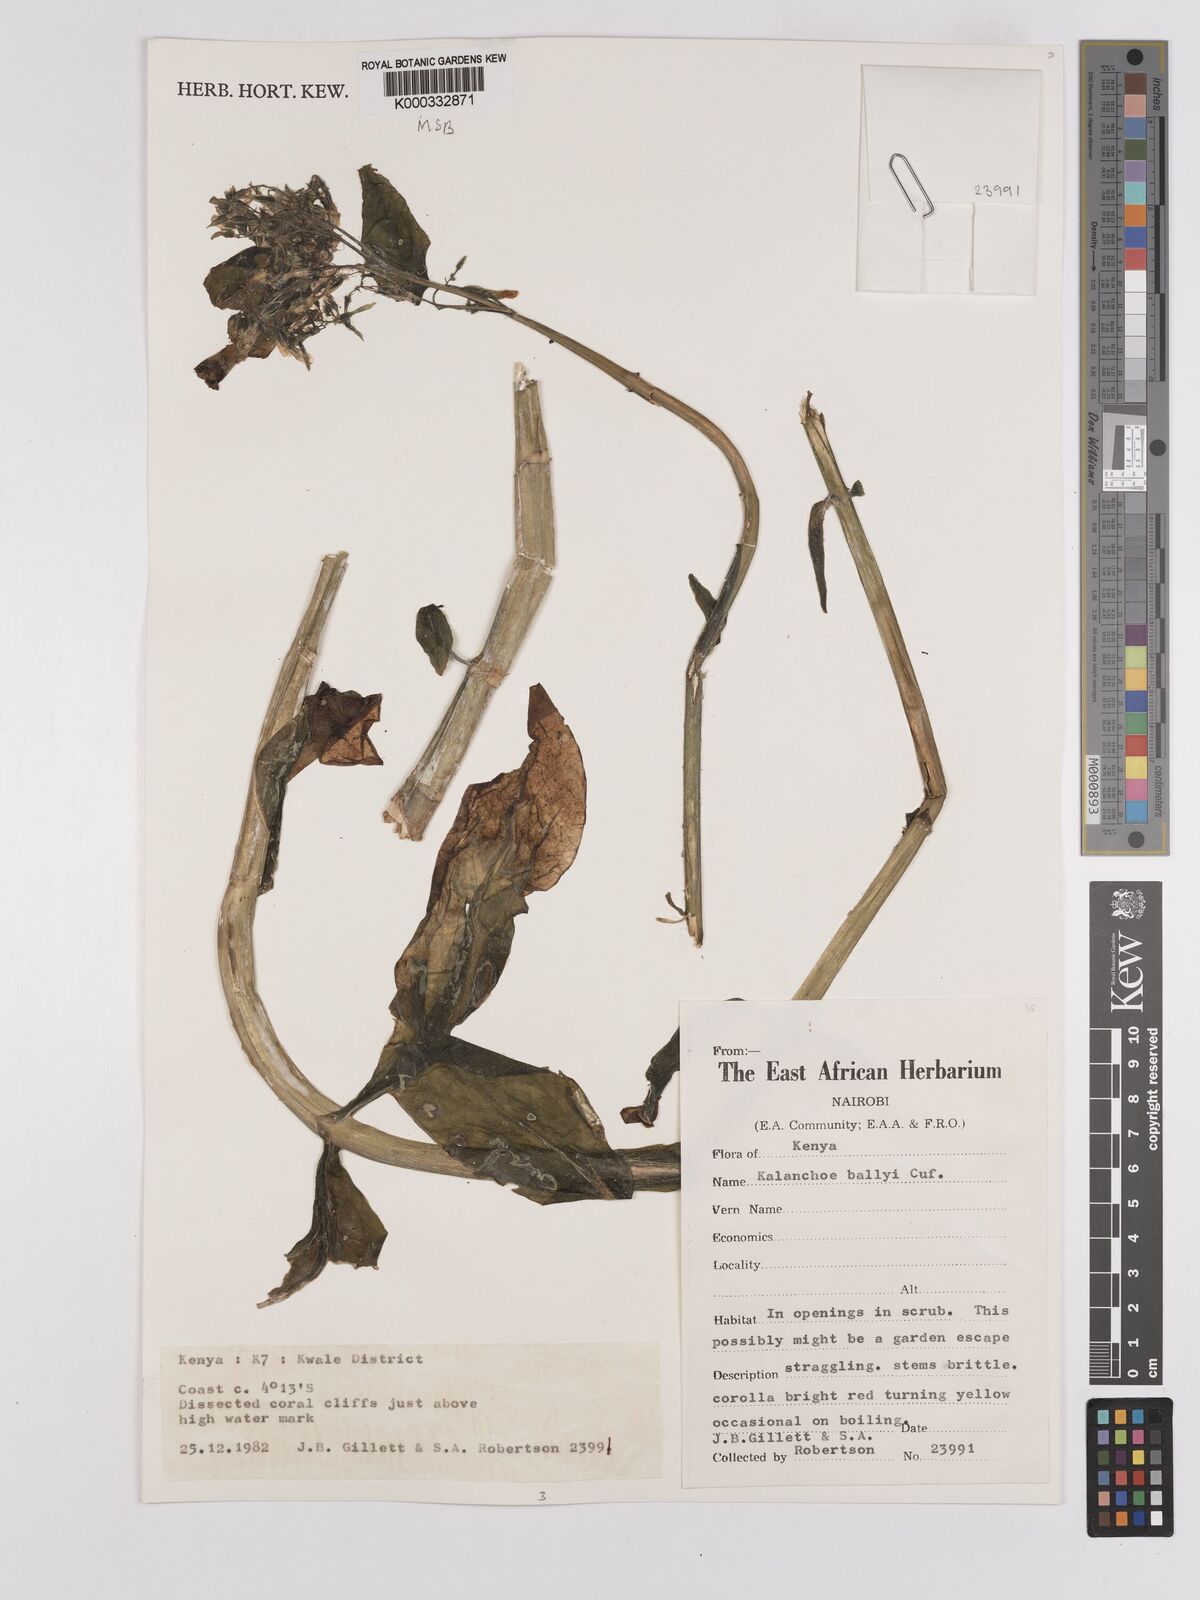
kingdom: Plantae
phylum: Tracheophyta
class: Magnoliopsida
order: Saxifragales
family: Crassulaceae
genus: Kalanchoe
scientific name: Kalanchoe ballyi
